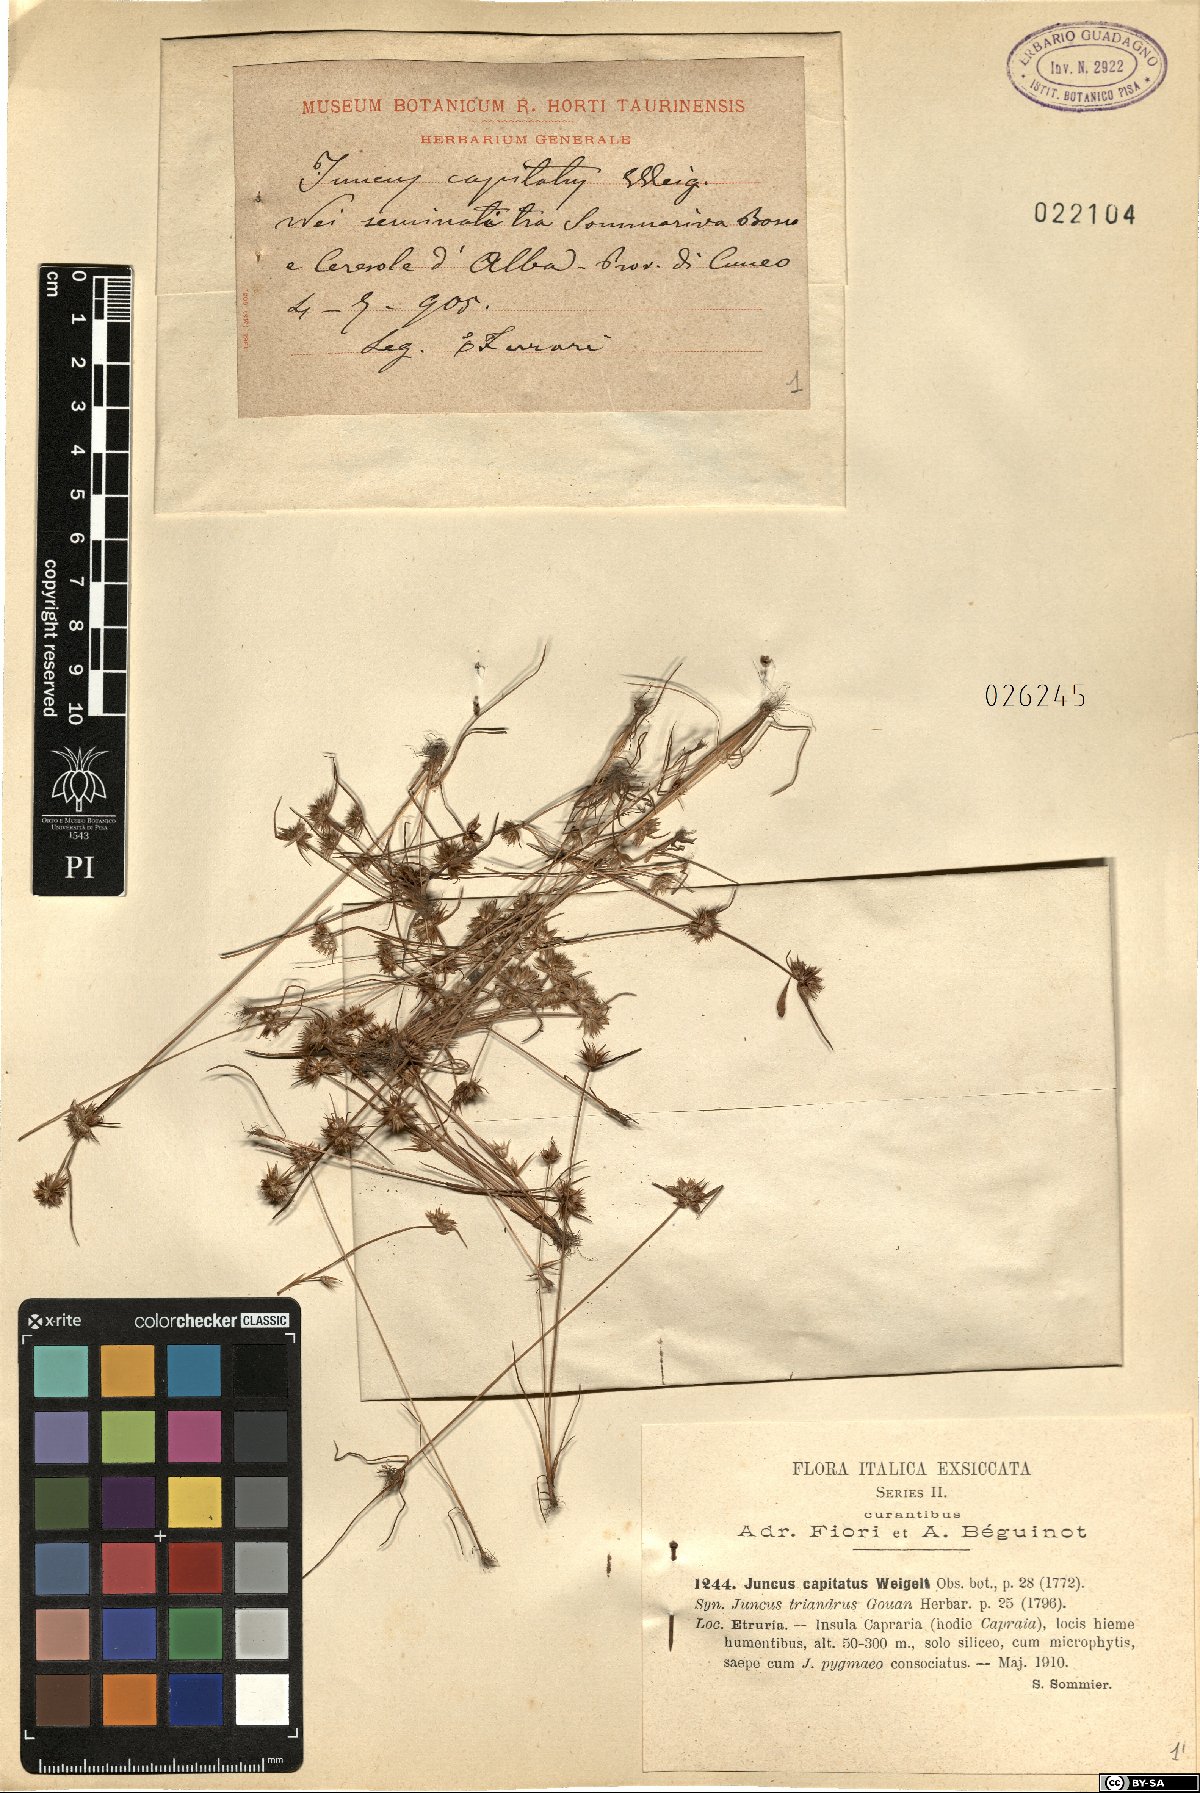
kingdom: Plantae
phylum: Tracheophyta
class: Liliopsida
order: Poales
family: Juncaceae
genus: Juncus
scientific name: Juncus capitatus
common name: Dwarf rush
